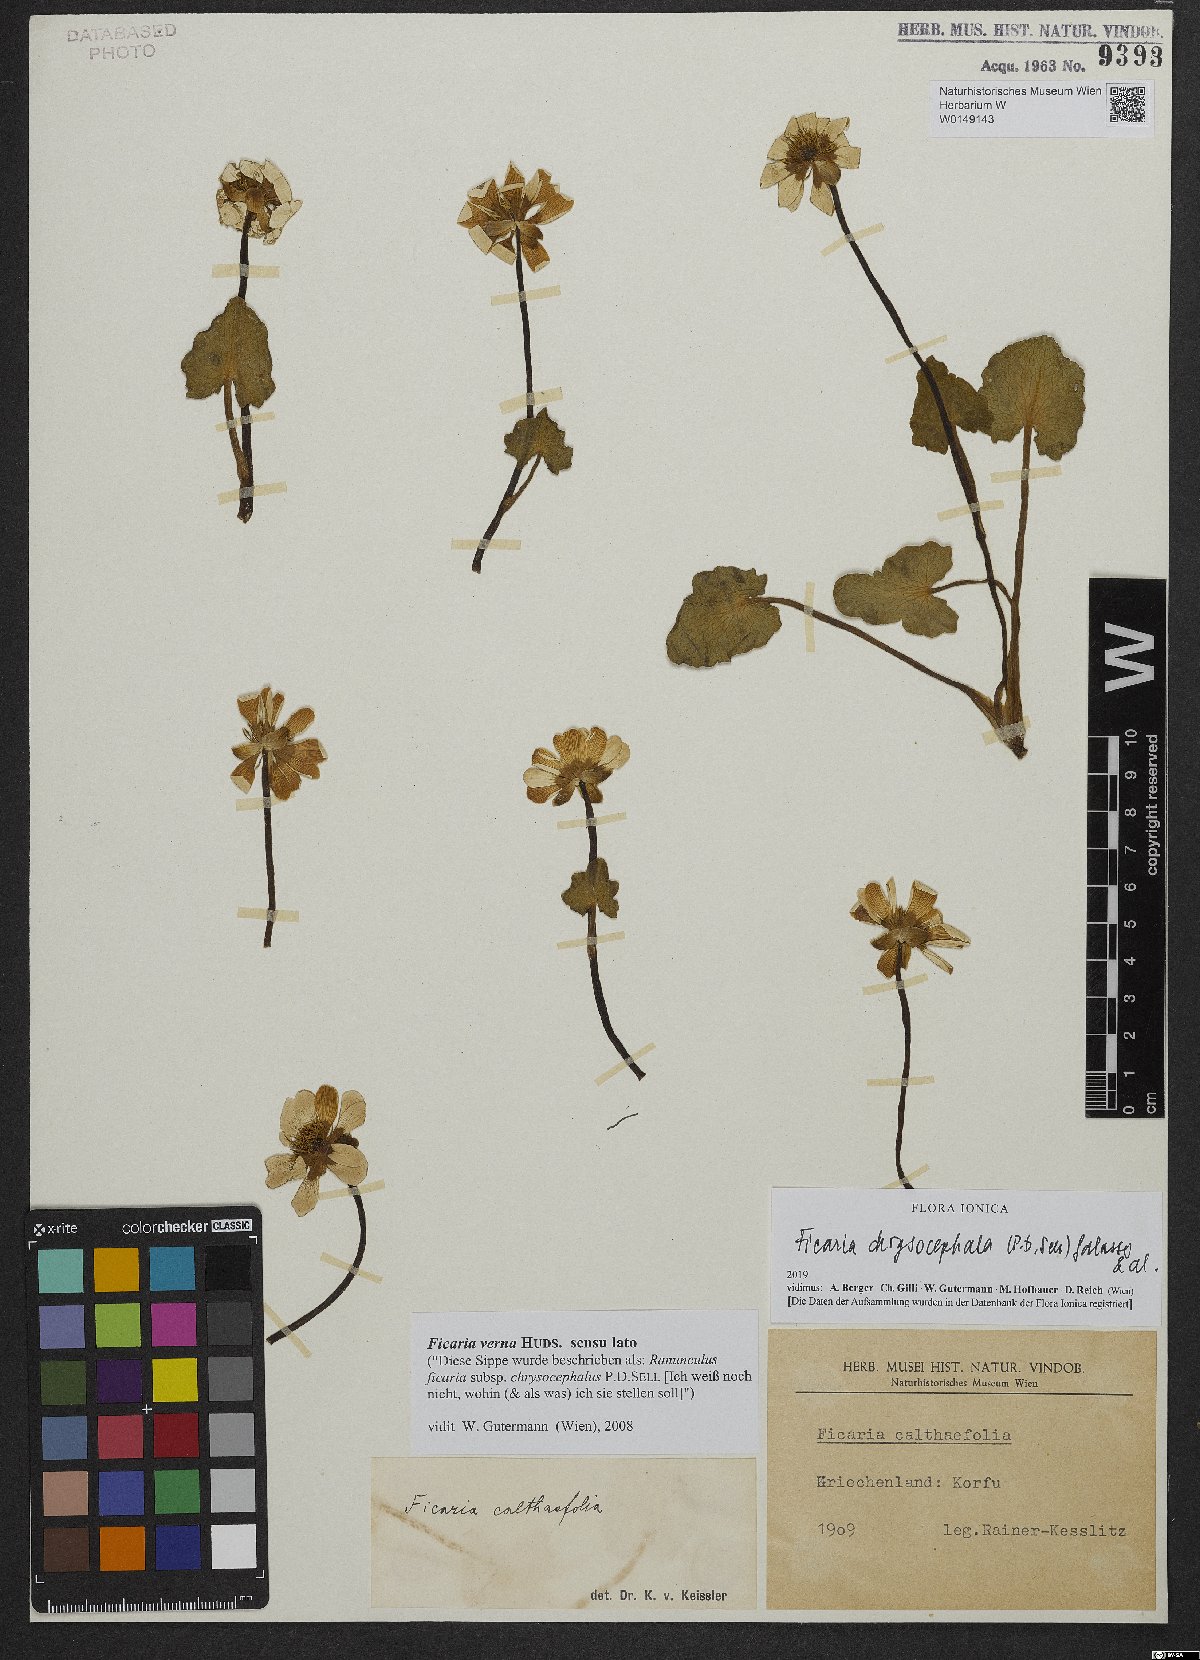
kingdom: Plantae
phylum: Tracheophyta
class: Magnoliopsida
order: Ranunculales
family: Ranunculaceae
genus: Ficaria
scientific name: Ficaria chrysocephala
